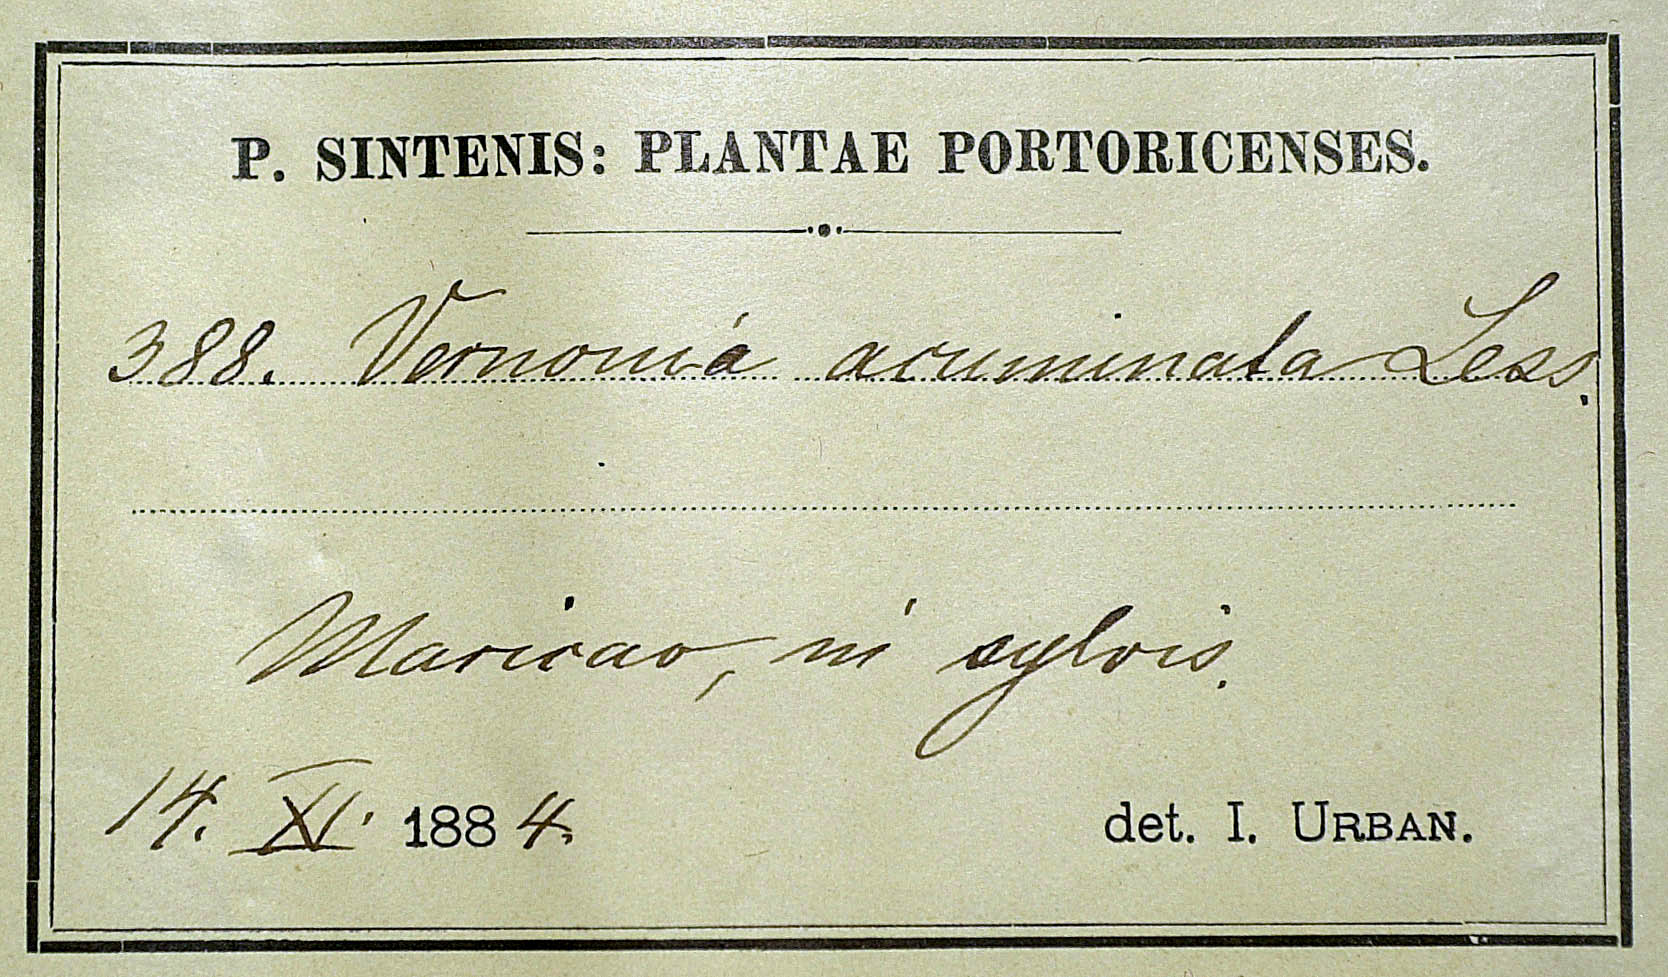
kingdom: Plantae
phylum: Tracheophyta
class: Magnoliopsida
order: Asterales
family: Asteraceae
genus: Lepidaploa
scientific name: Lepidaploa borinquensis
